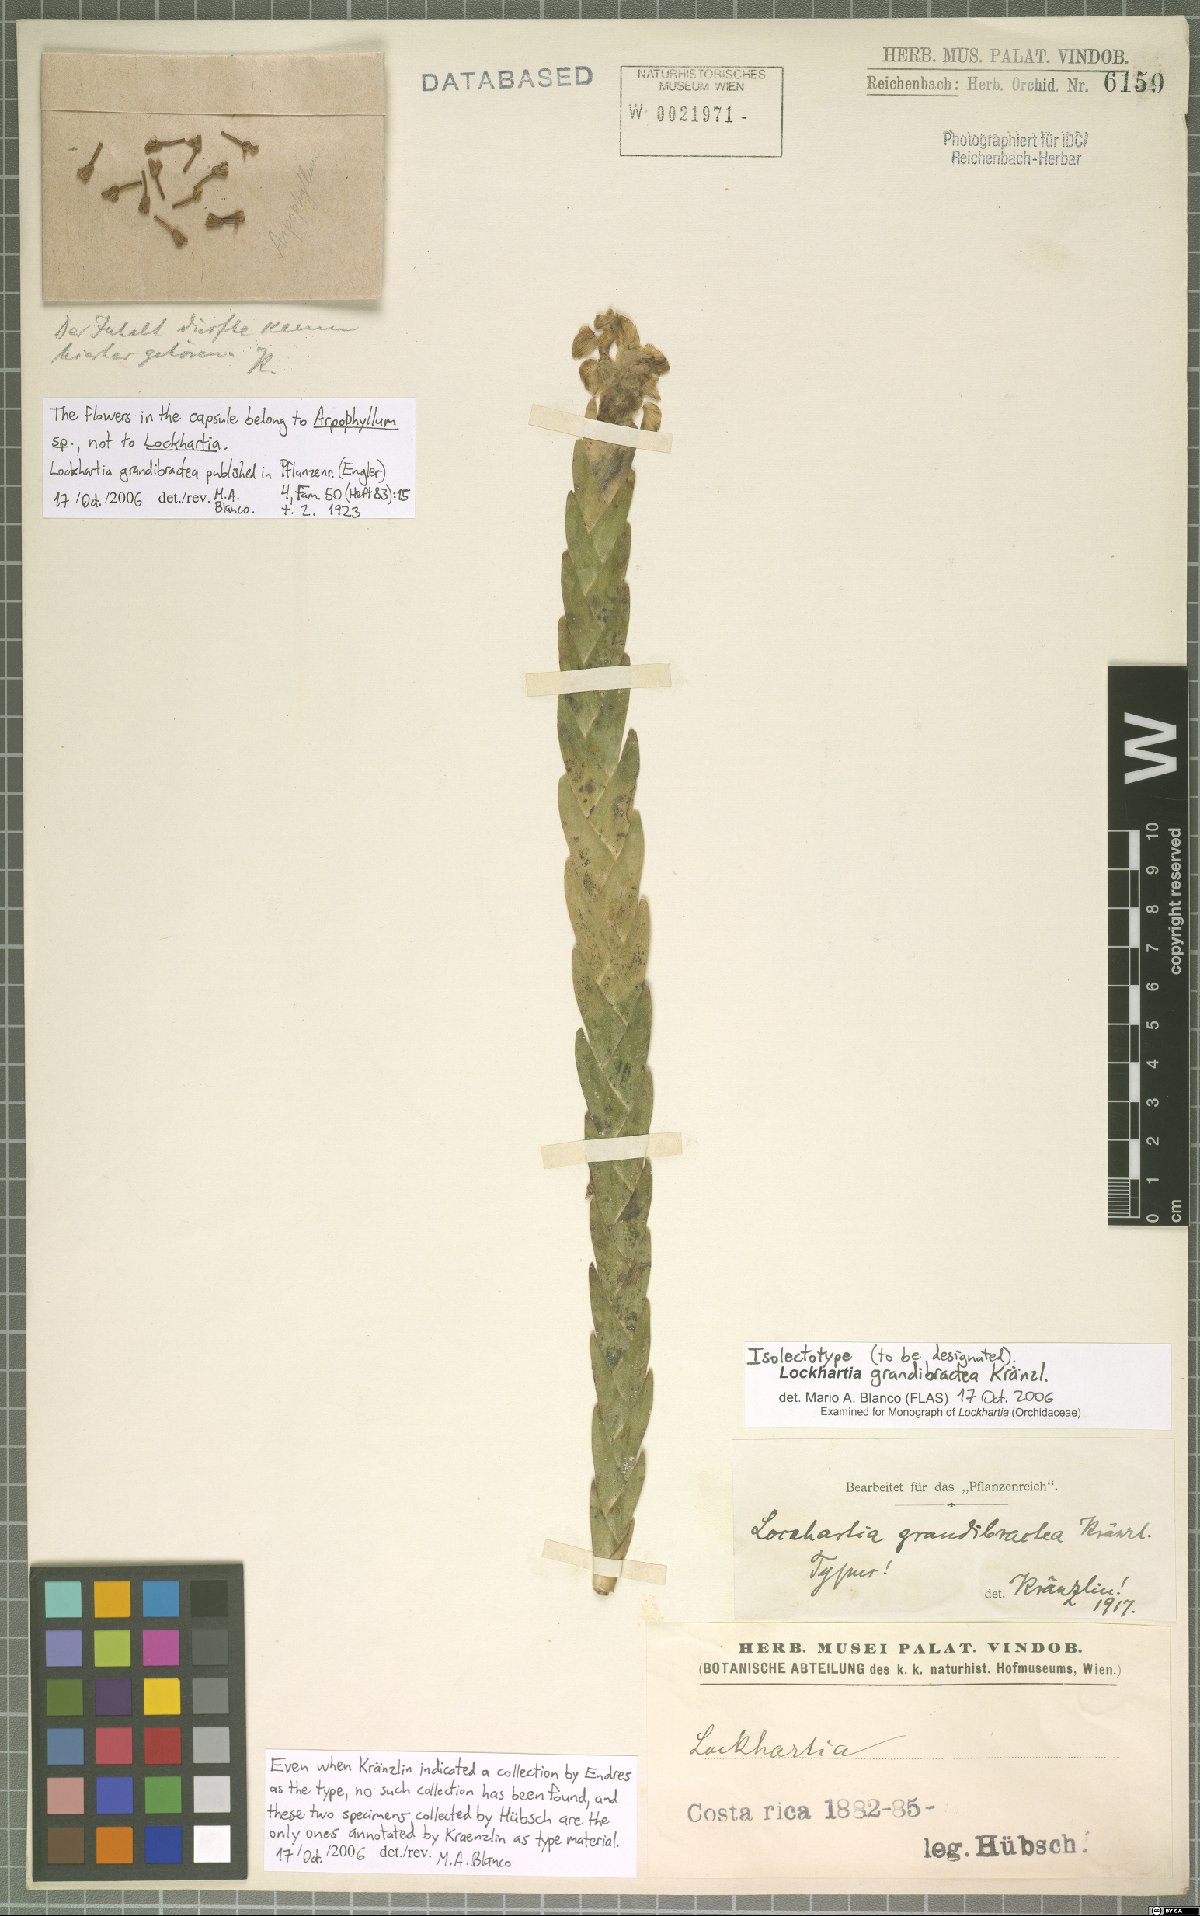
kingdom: Plantae
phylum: Tracheophyta
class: Liliopsida
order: Asparagales
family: Orchidaceae
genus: Lockhartia
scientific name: Lockhartia amoena
